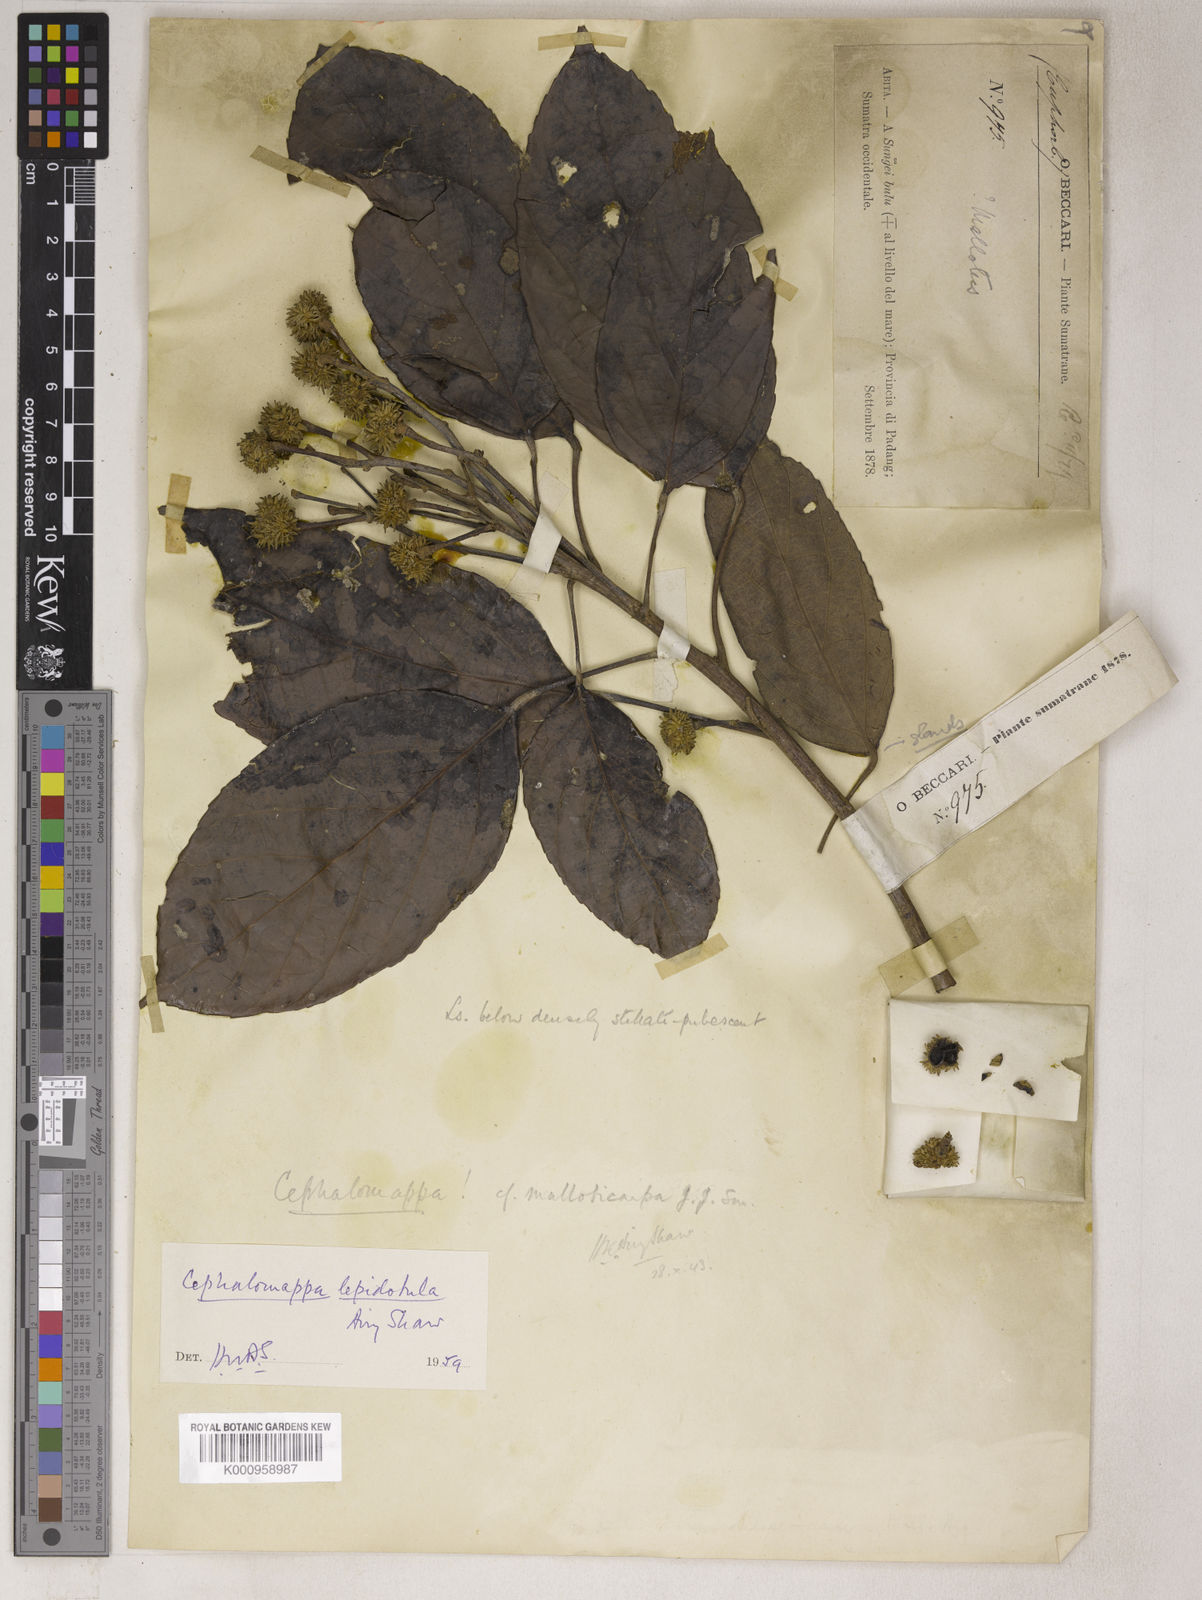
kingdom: Plantae
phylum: Tracheophyta
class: Magnoliopsida
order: Malpighiales
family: Euphorbiaceae
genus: Cephalomappa
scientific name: Cephalomappa lepidotula
